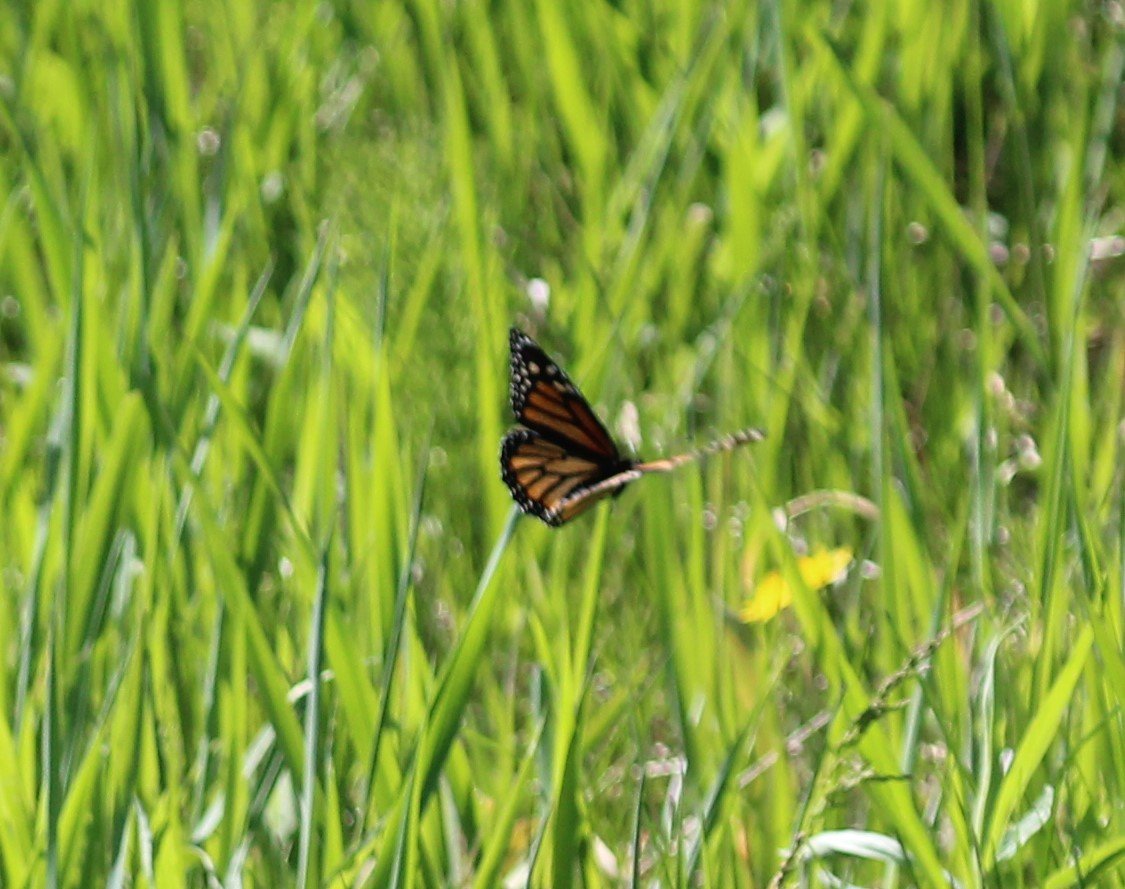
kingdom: Animalia
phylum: Arthropoda
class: Insecta
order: Lepidoptera
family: Nymphalidae
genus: Danaus
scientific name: Danaus plexippus
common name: Monarch
